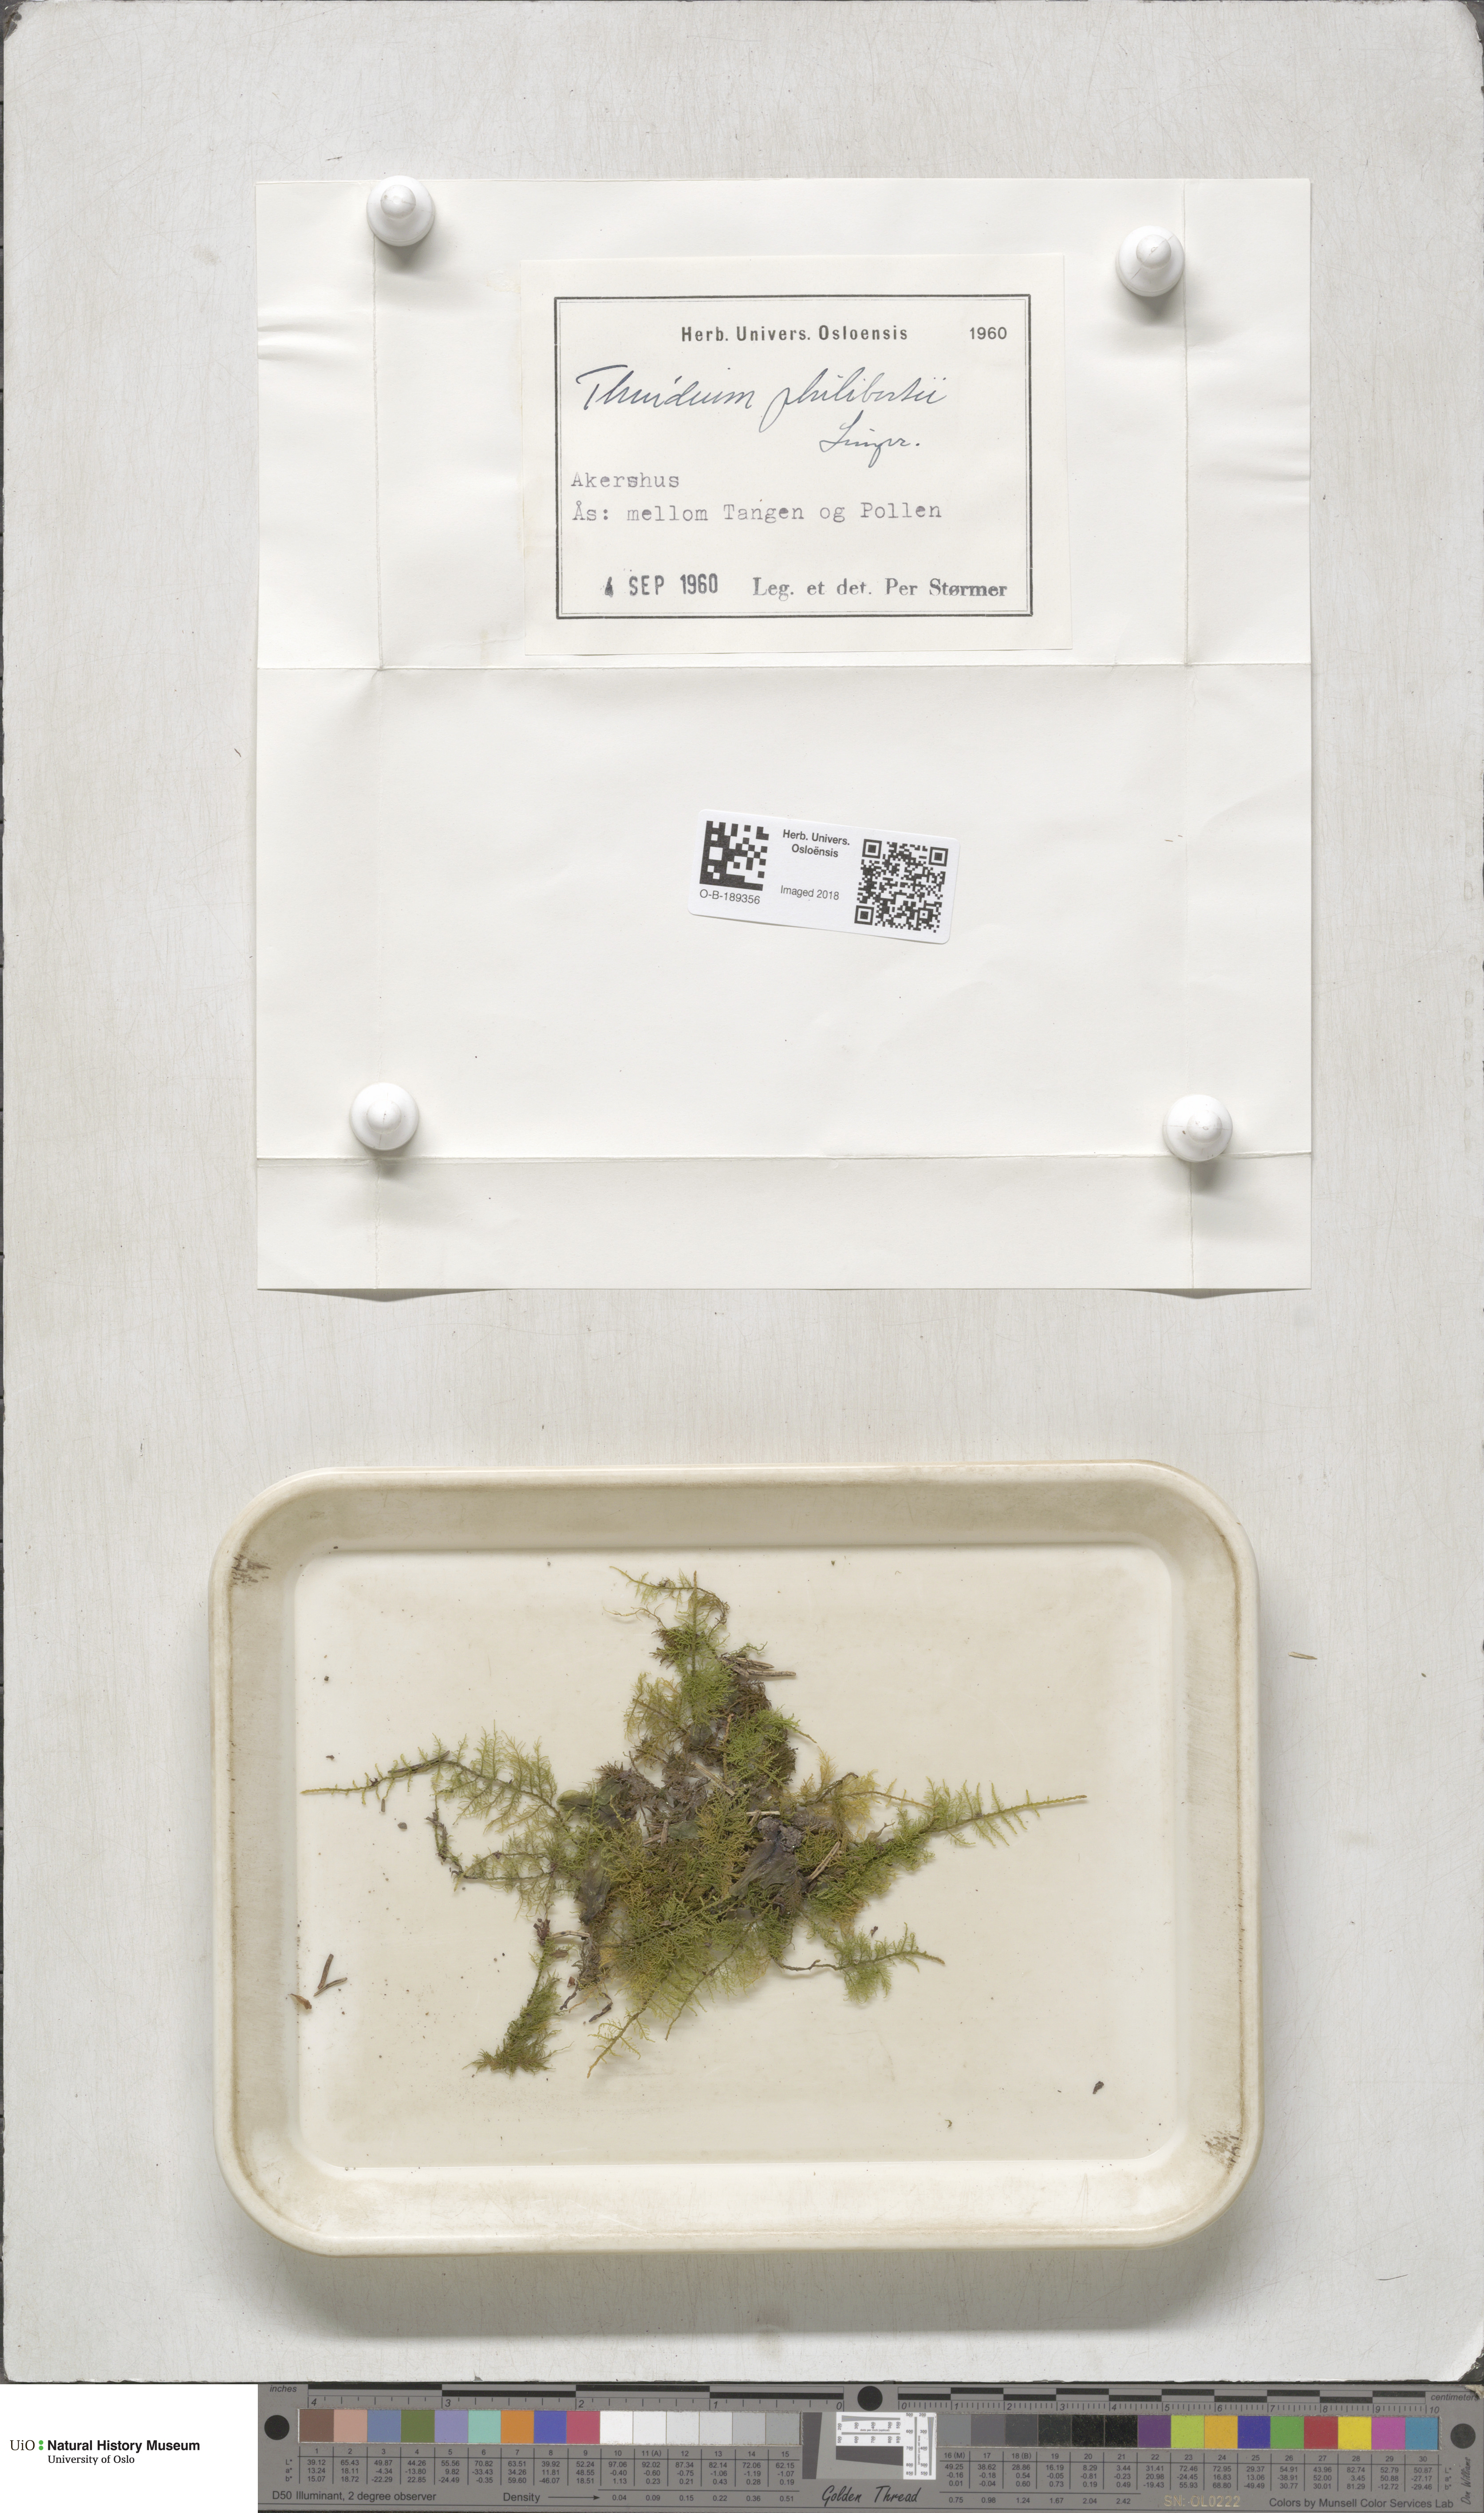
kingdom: Plantae
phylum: Bryophyta
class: Bryopsida
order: Hypnales
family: Thuidiaceae
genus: Thuidium
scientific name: Thuidium assimile
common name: Philibert's fern moss
